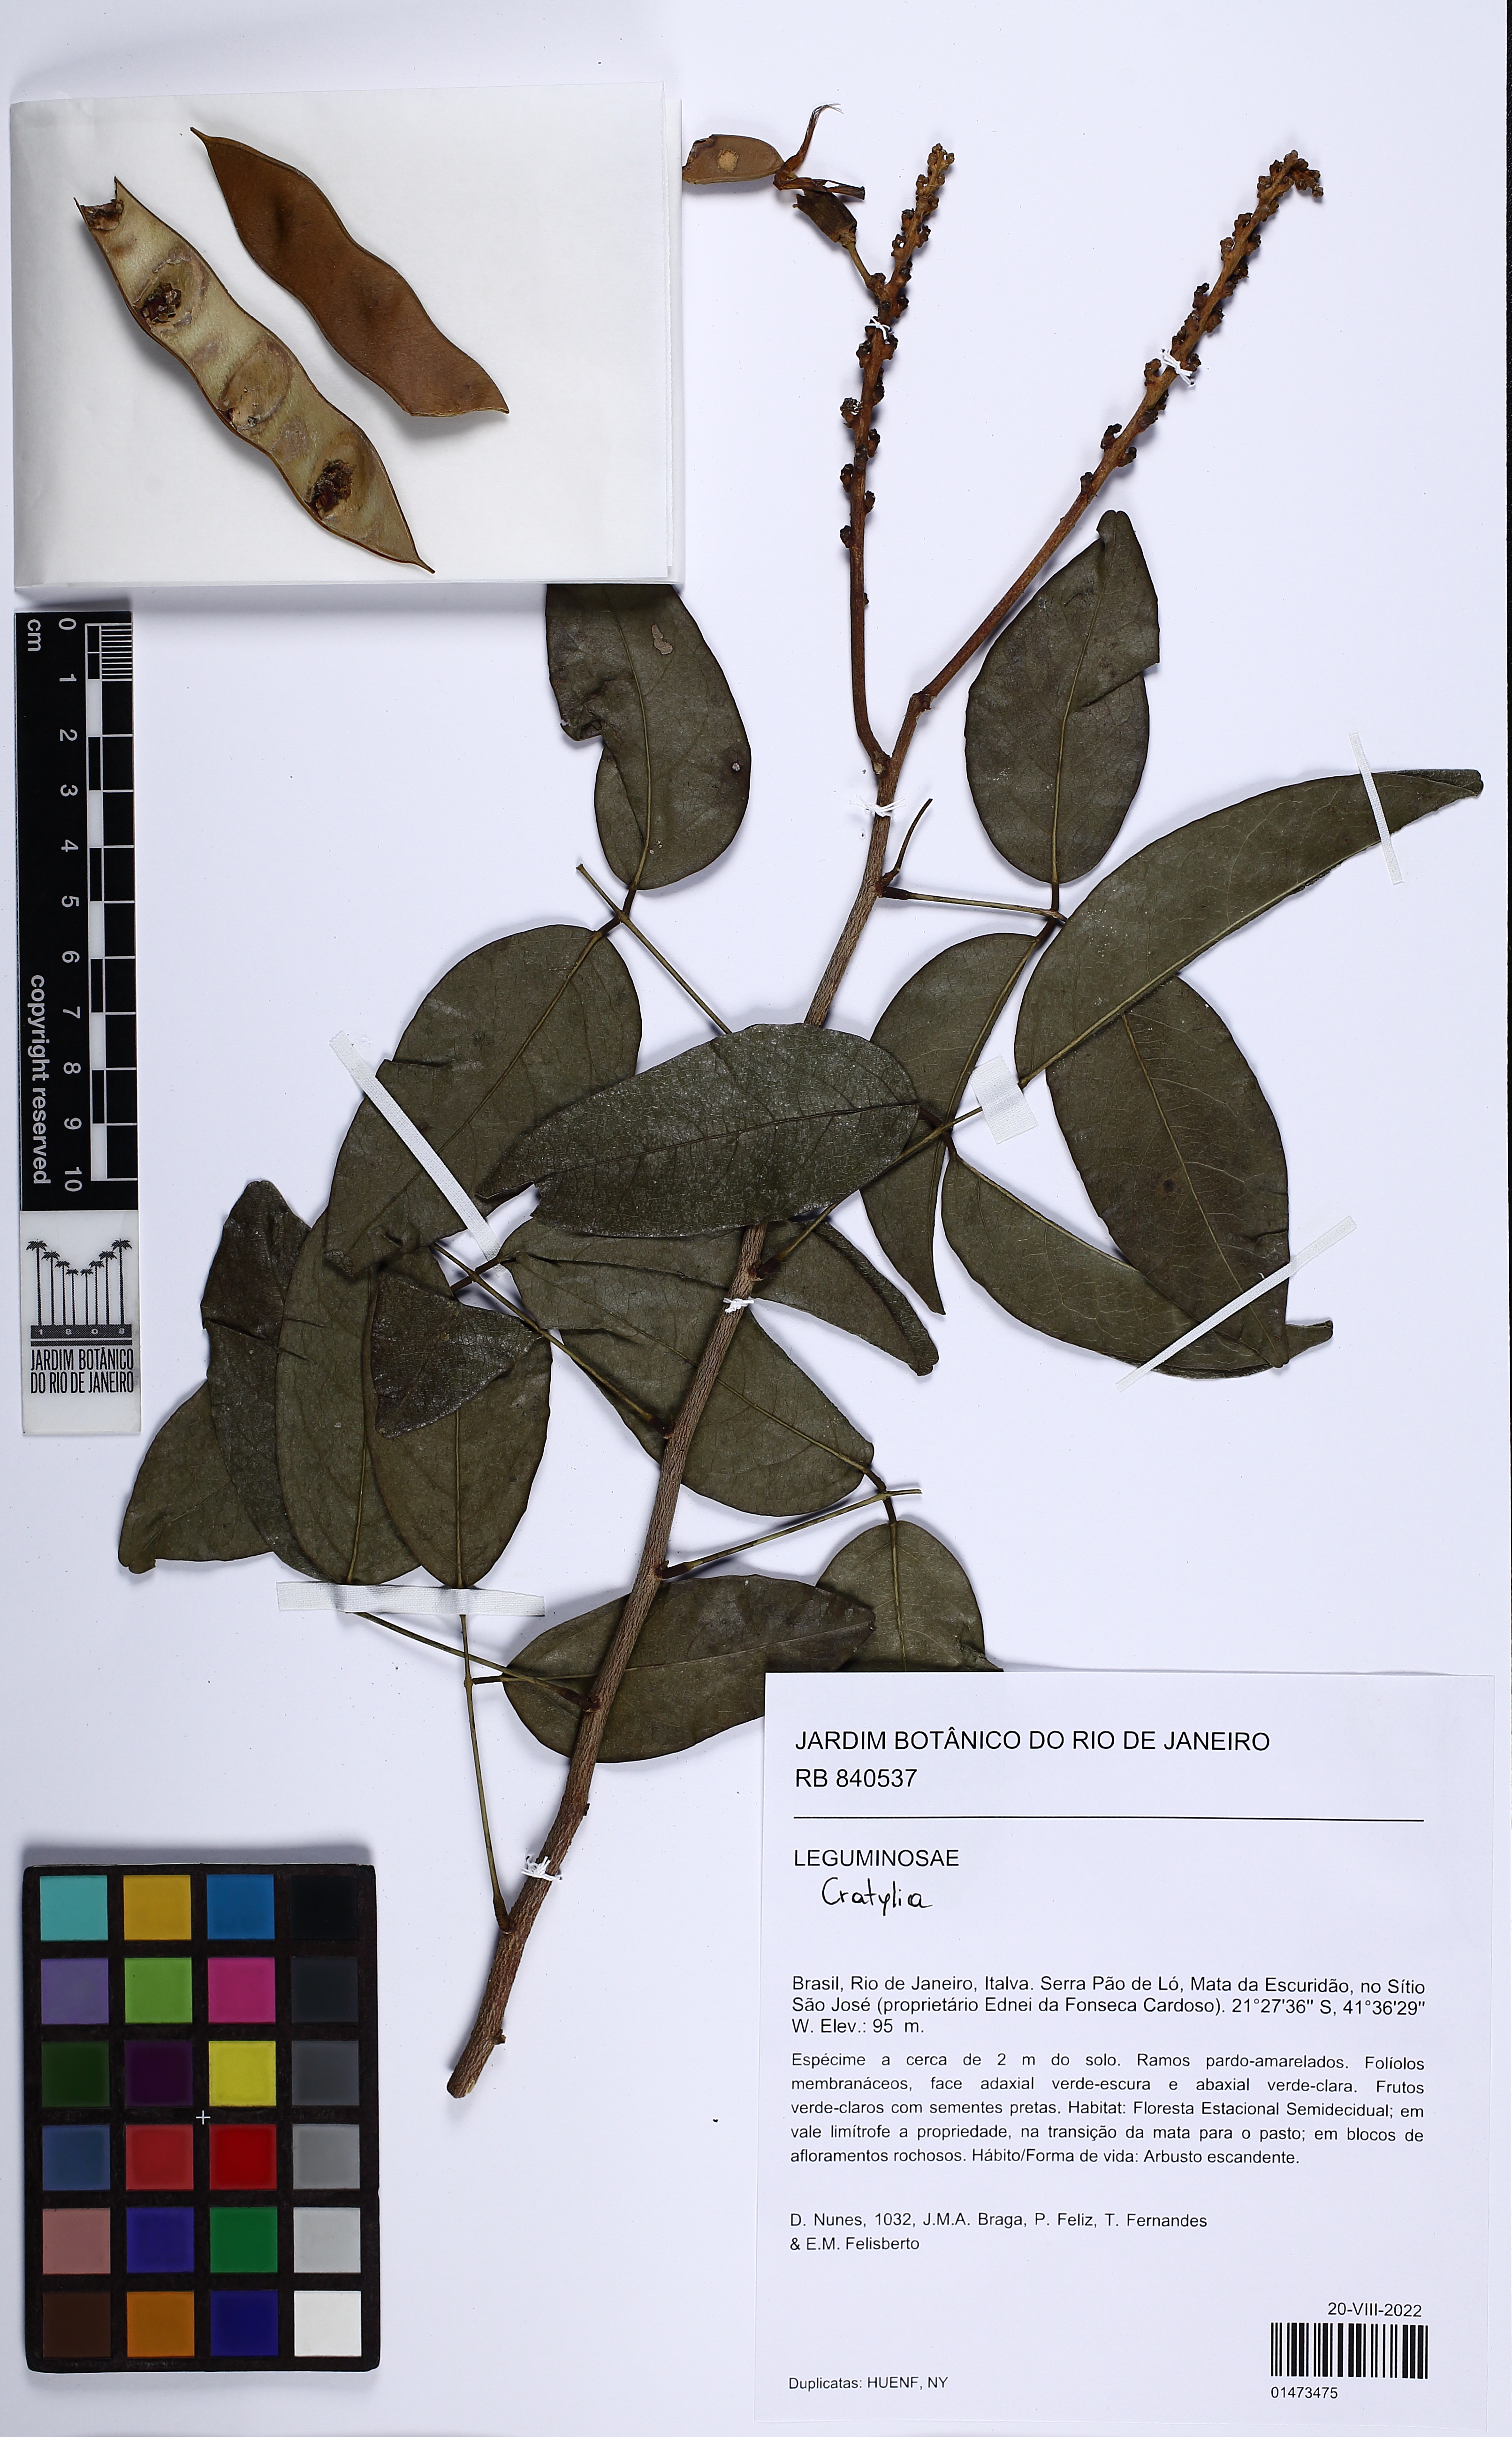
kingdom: Plantae
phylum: Tracheophyta
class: Magnoliopsida
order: Fabales
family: Fabaceae
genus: Cratylia
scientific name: Cratylia isopetala
